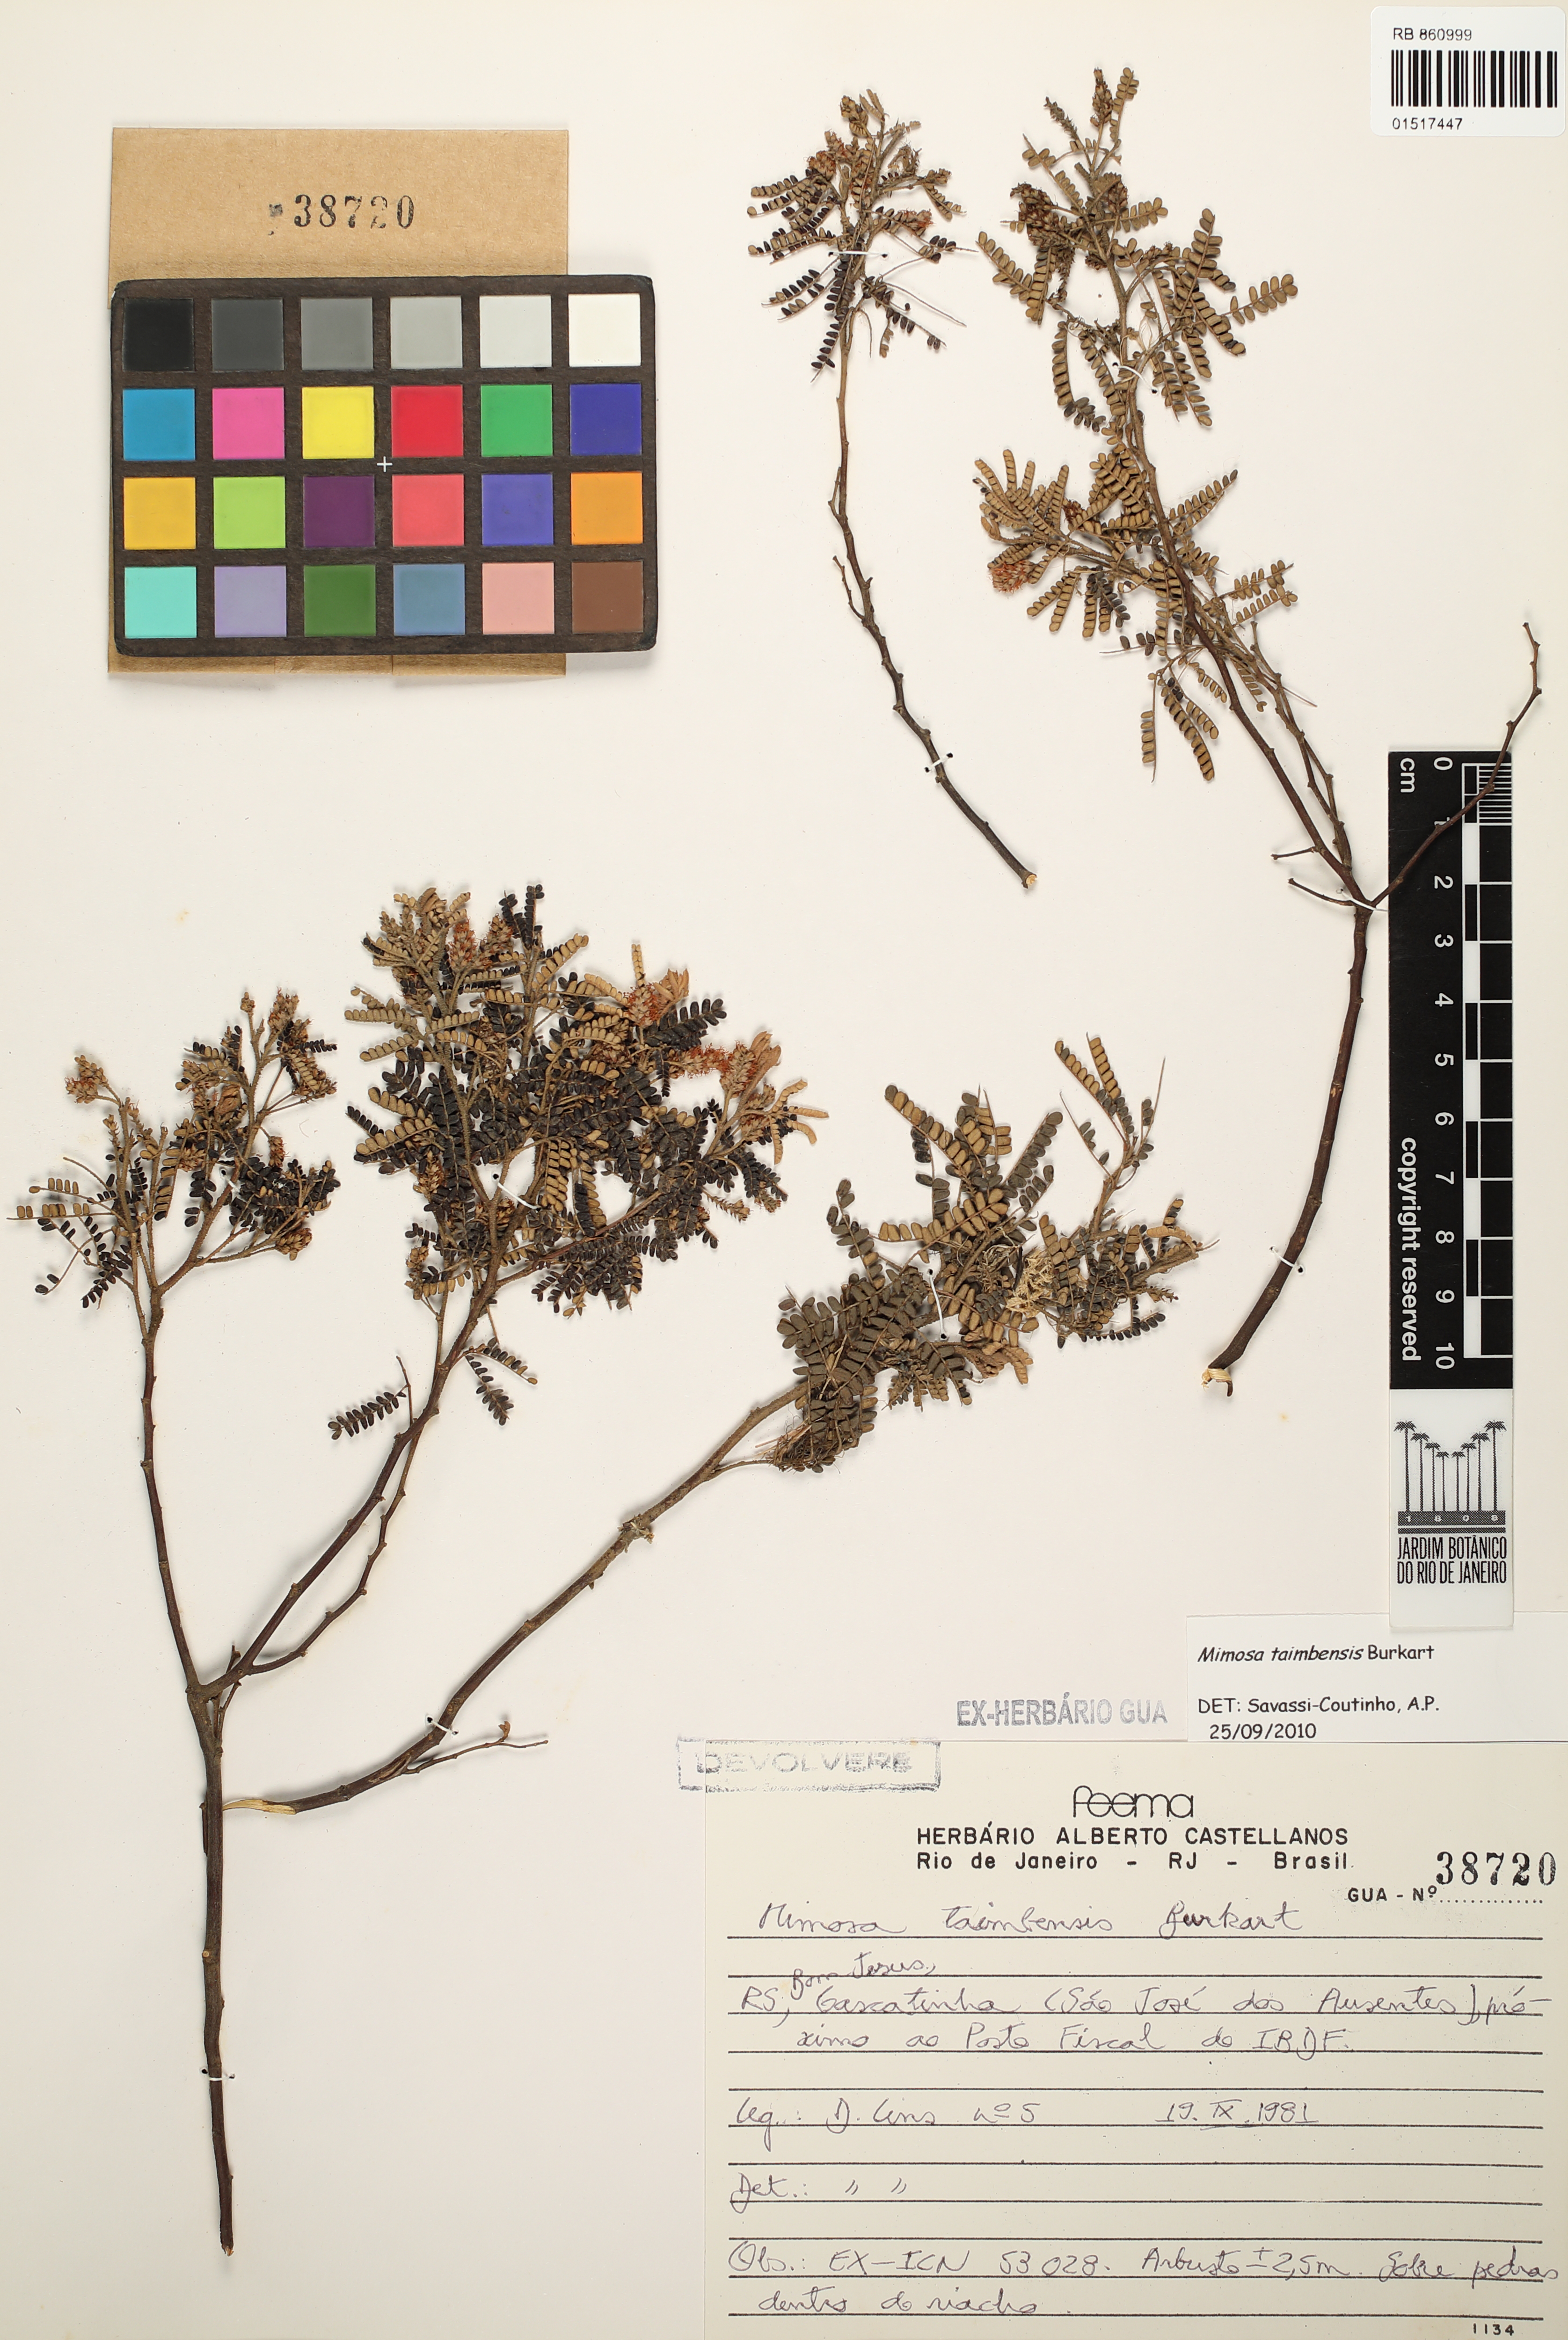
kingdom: Plantae
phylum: Tracheophyta
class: Magnoliopsida
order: Fabales
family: Fabaceae
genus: Mimosa
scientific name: Mimosa taimbensis
